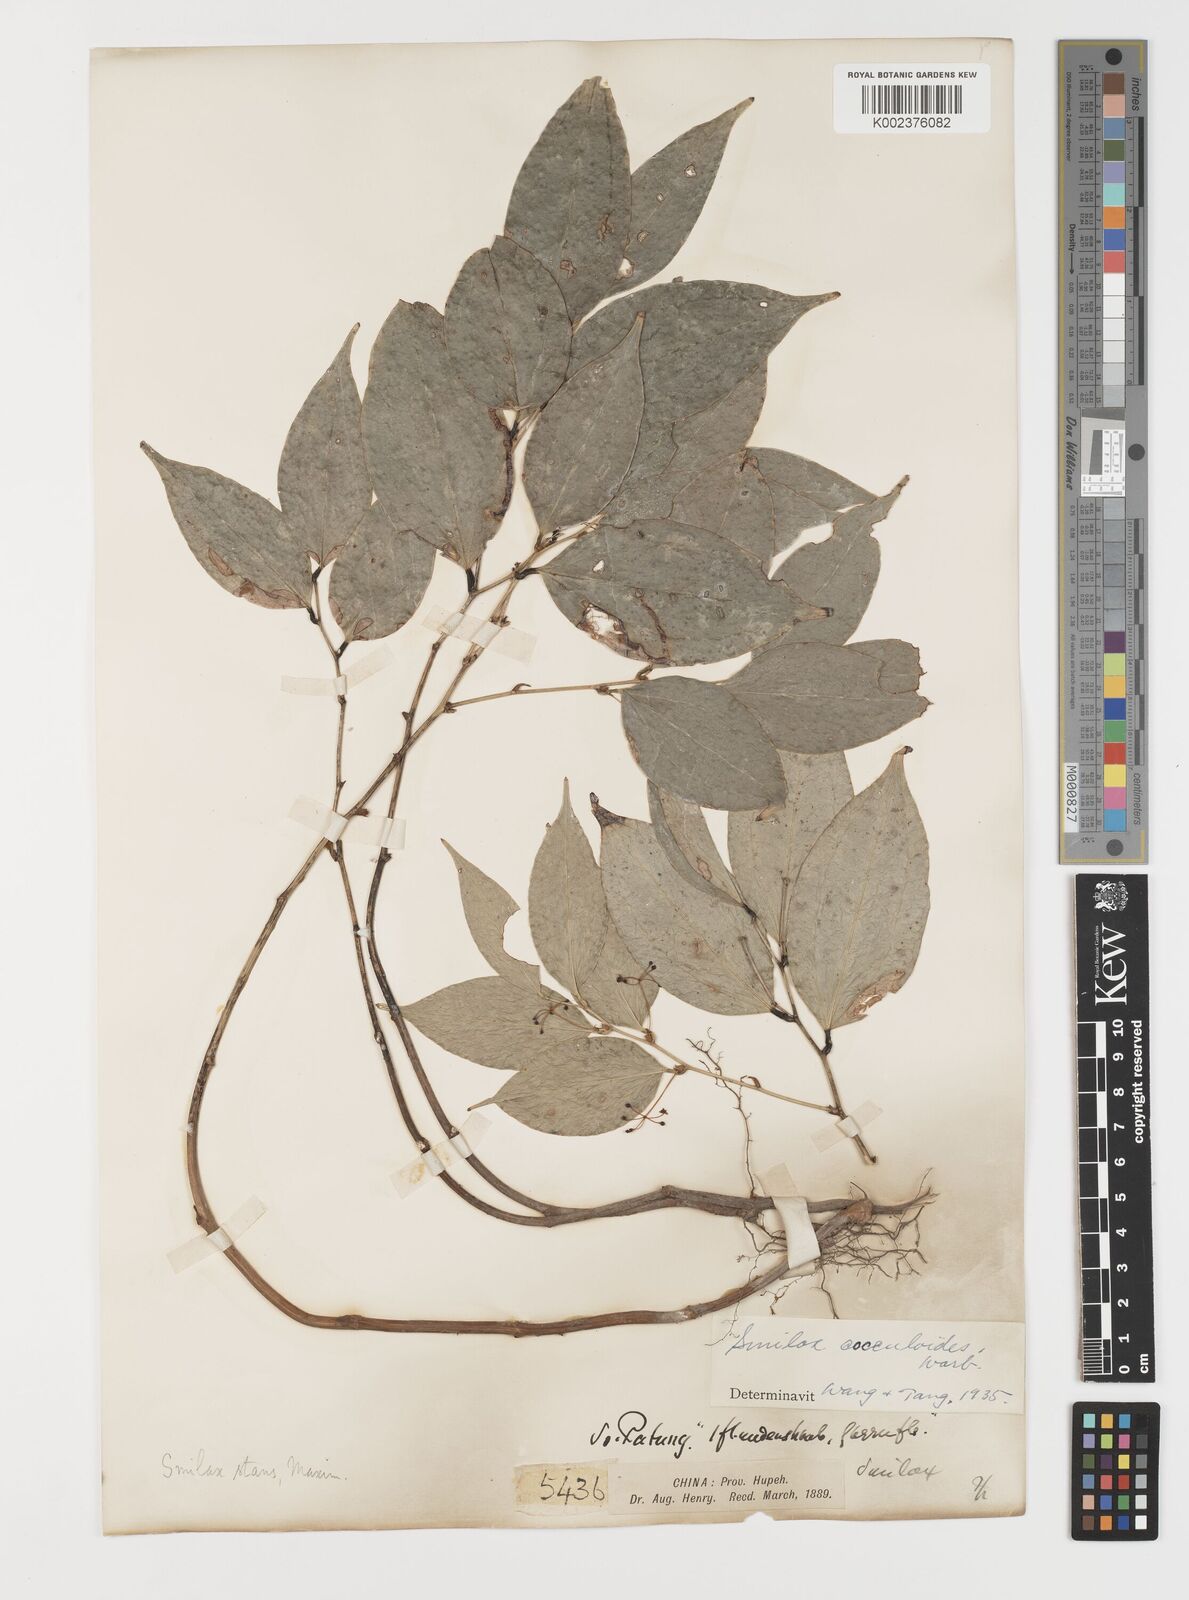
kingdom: Plantae
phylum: Tracheophyta
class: Liliopsida
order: Liliales
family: Smilacaceae
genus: Smilax
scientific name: Smilax cocculoides
